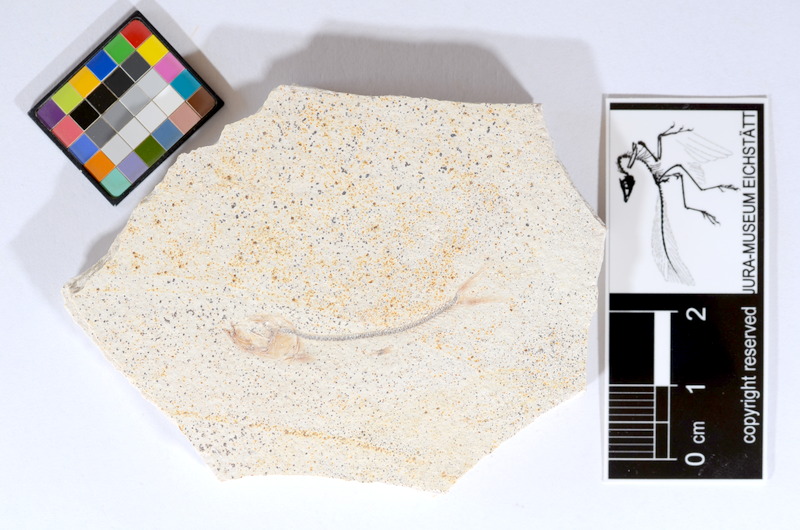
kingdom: Animalia
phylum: Chordata
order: Salmoniformes
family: Orthogonikleithridae
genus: Orthogonikleithrus
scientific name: Orthogonikleithrus hoelli
